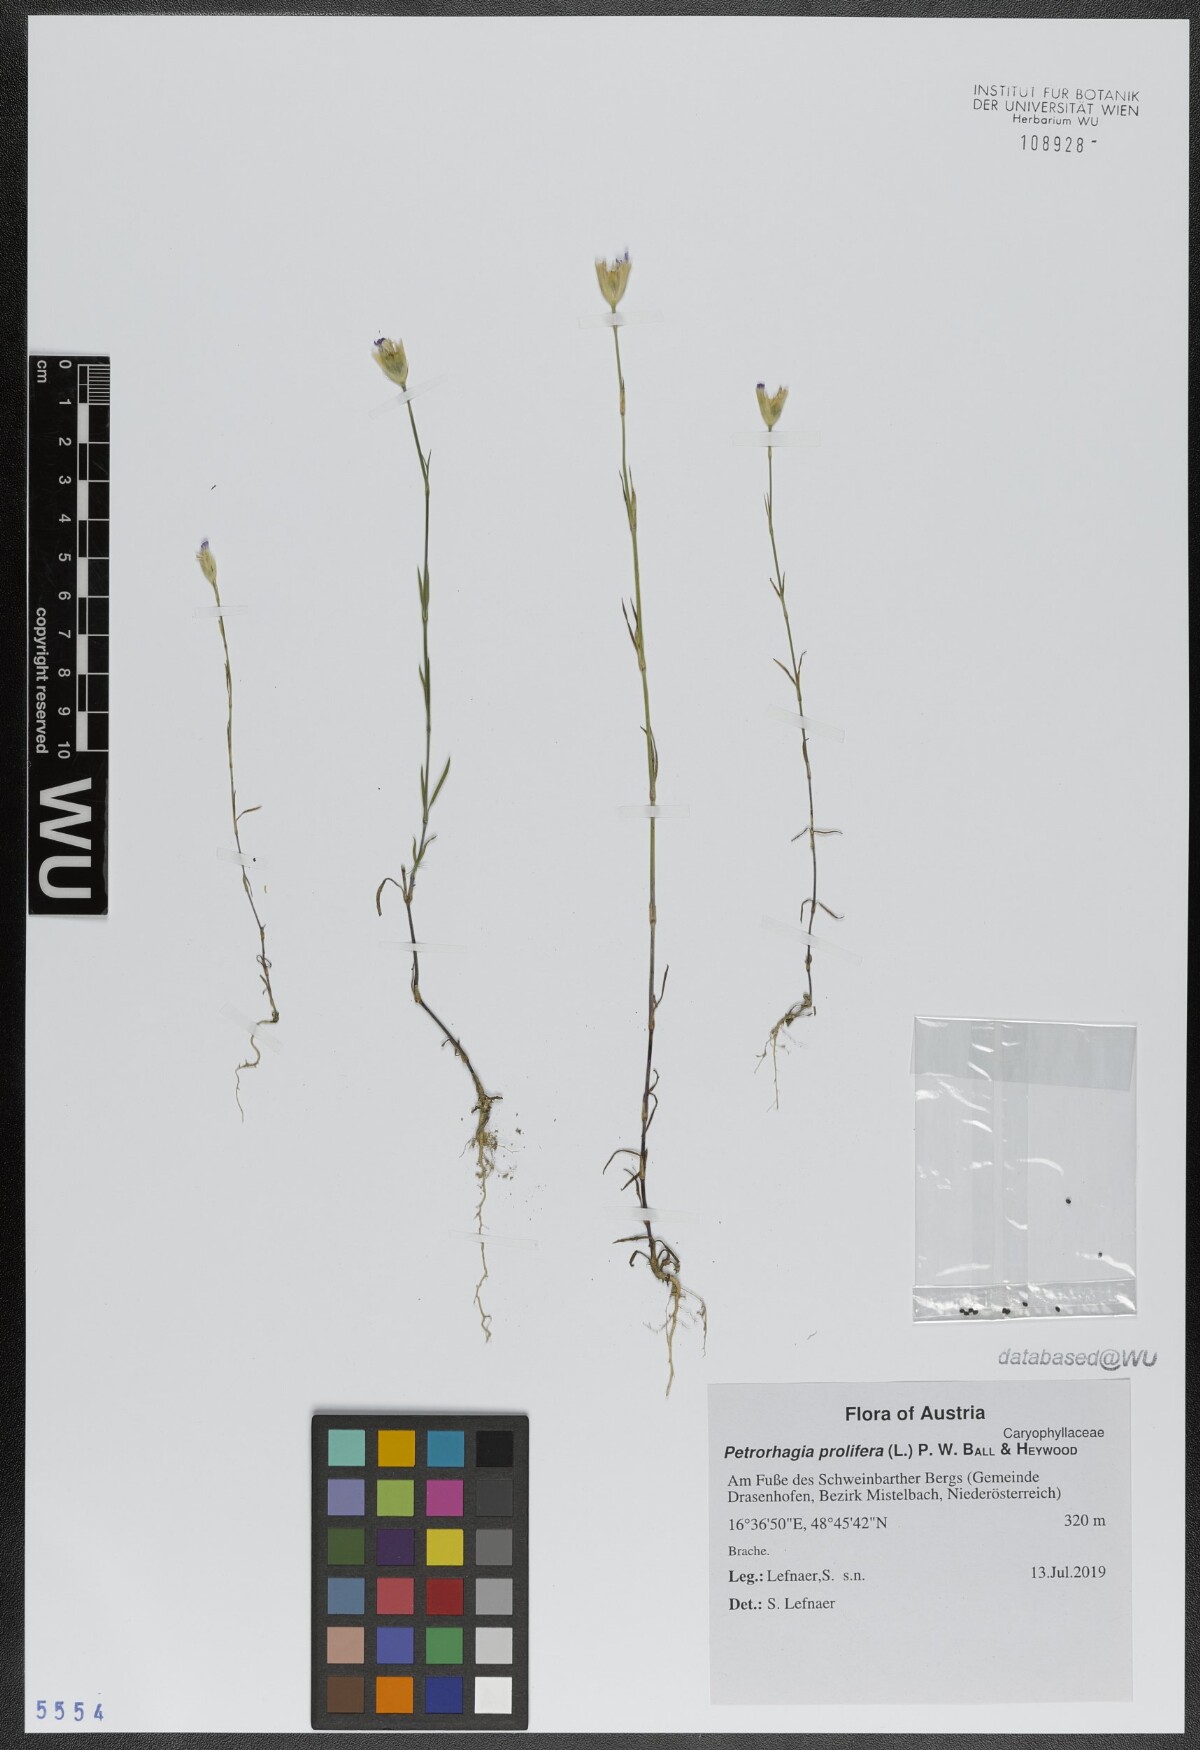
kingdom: Plantae
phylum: Tracheophyta
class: Magnoliopsida
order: Caryophyllales
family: Caryophyllaceae
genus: Petrorhagia
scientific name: Petrorhagia prolifera
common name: Proliferous pink
